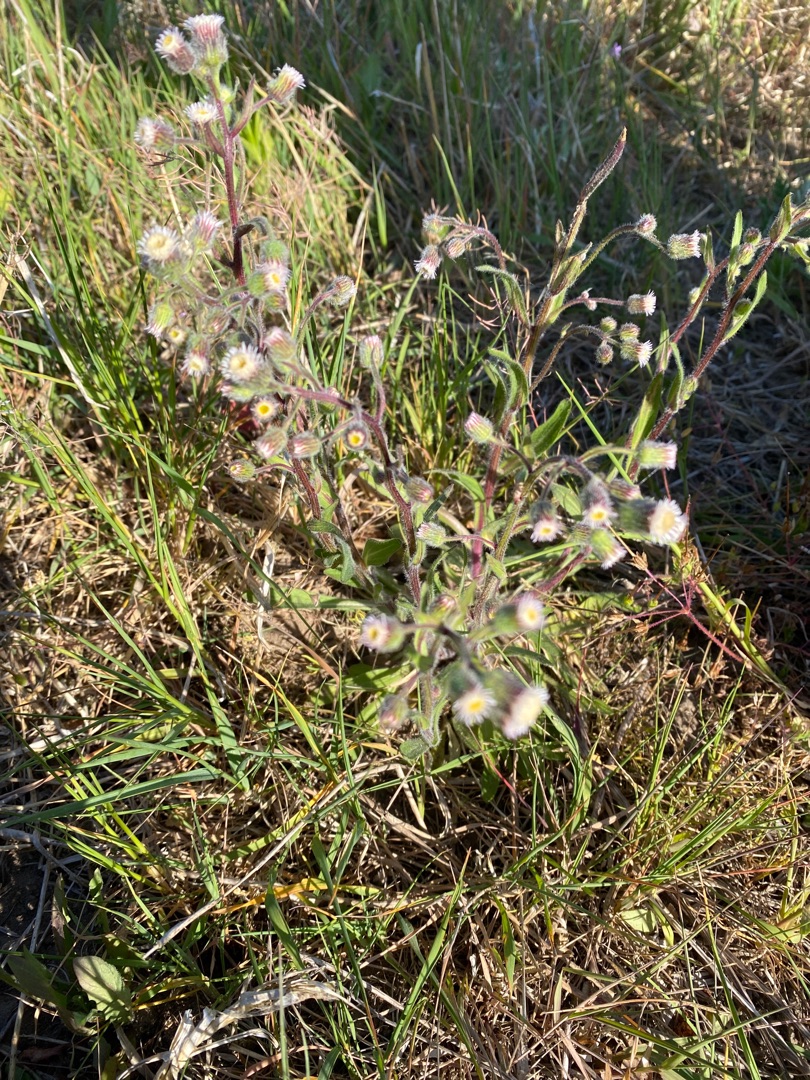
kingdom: Plantae
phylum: Tracheophyta
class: Magnoliopsida
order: Asterales
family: Asteraceae
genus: Erigeron
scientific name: Erigeron acris
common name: Bitter bakkestjerne
